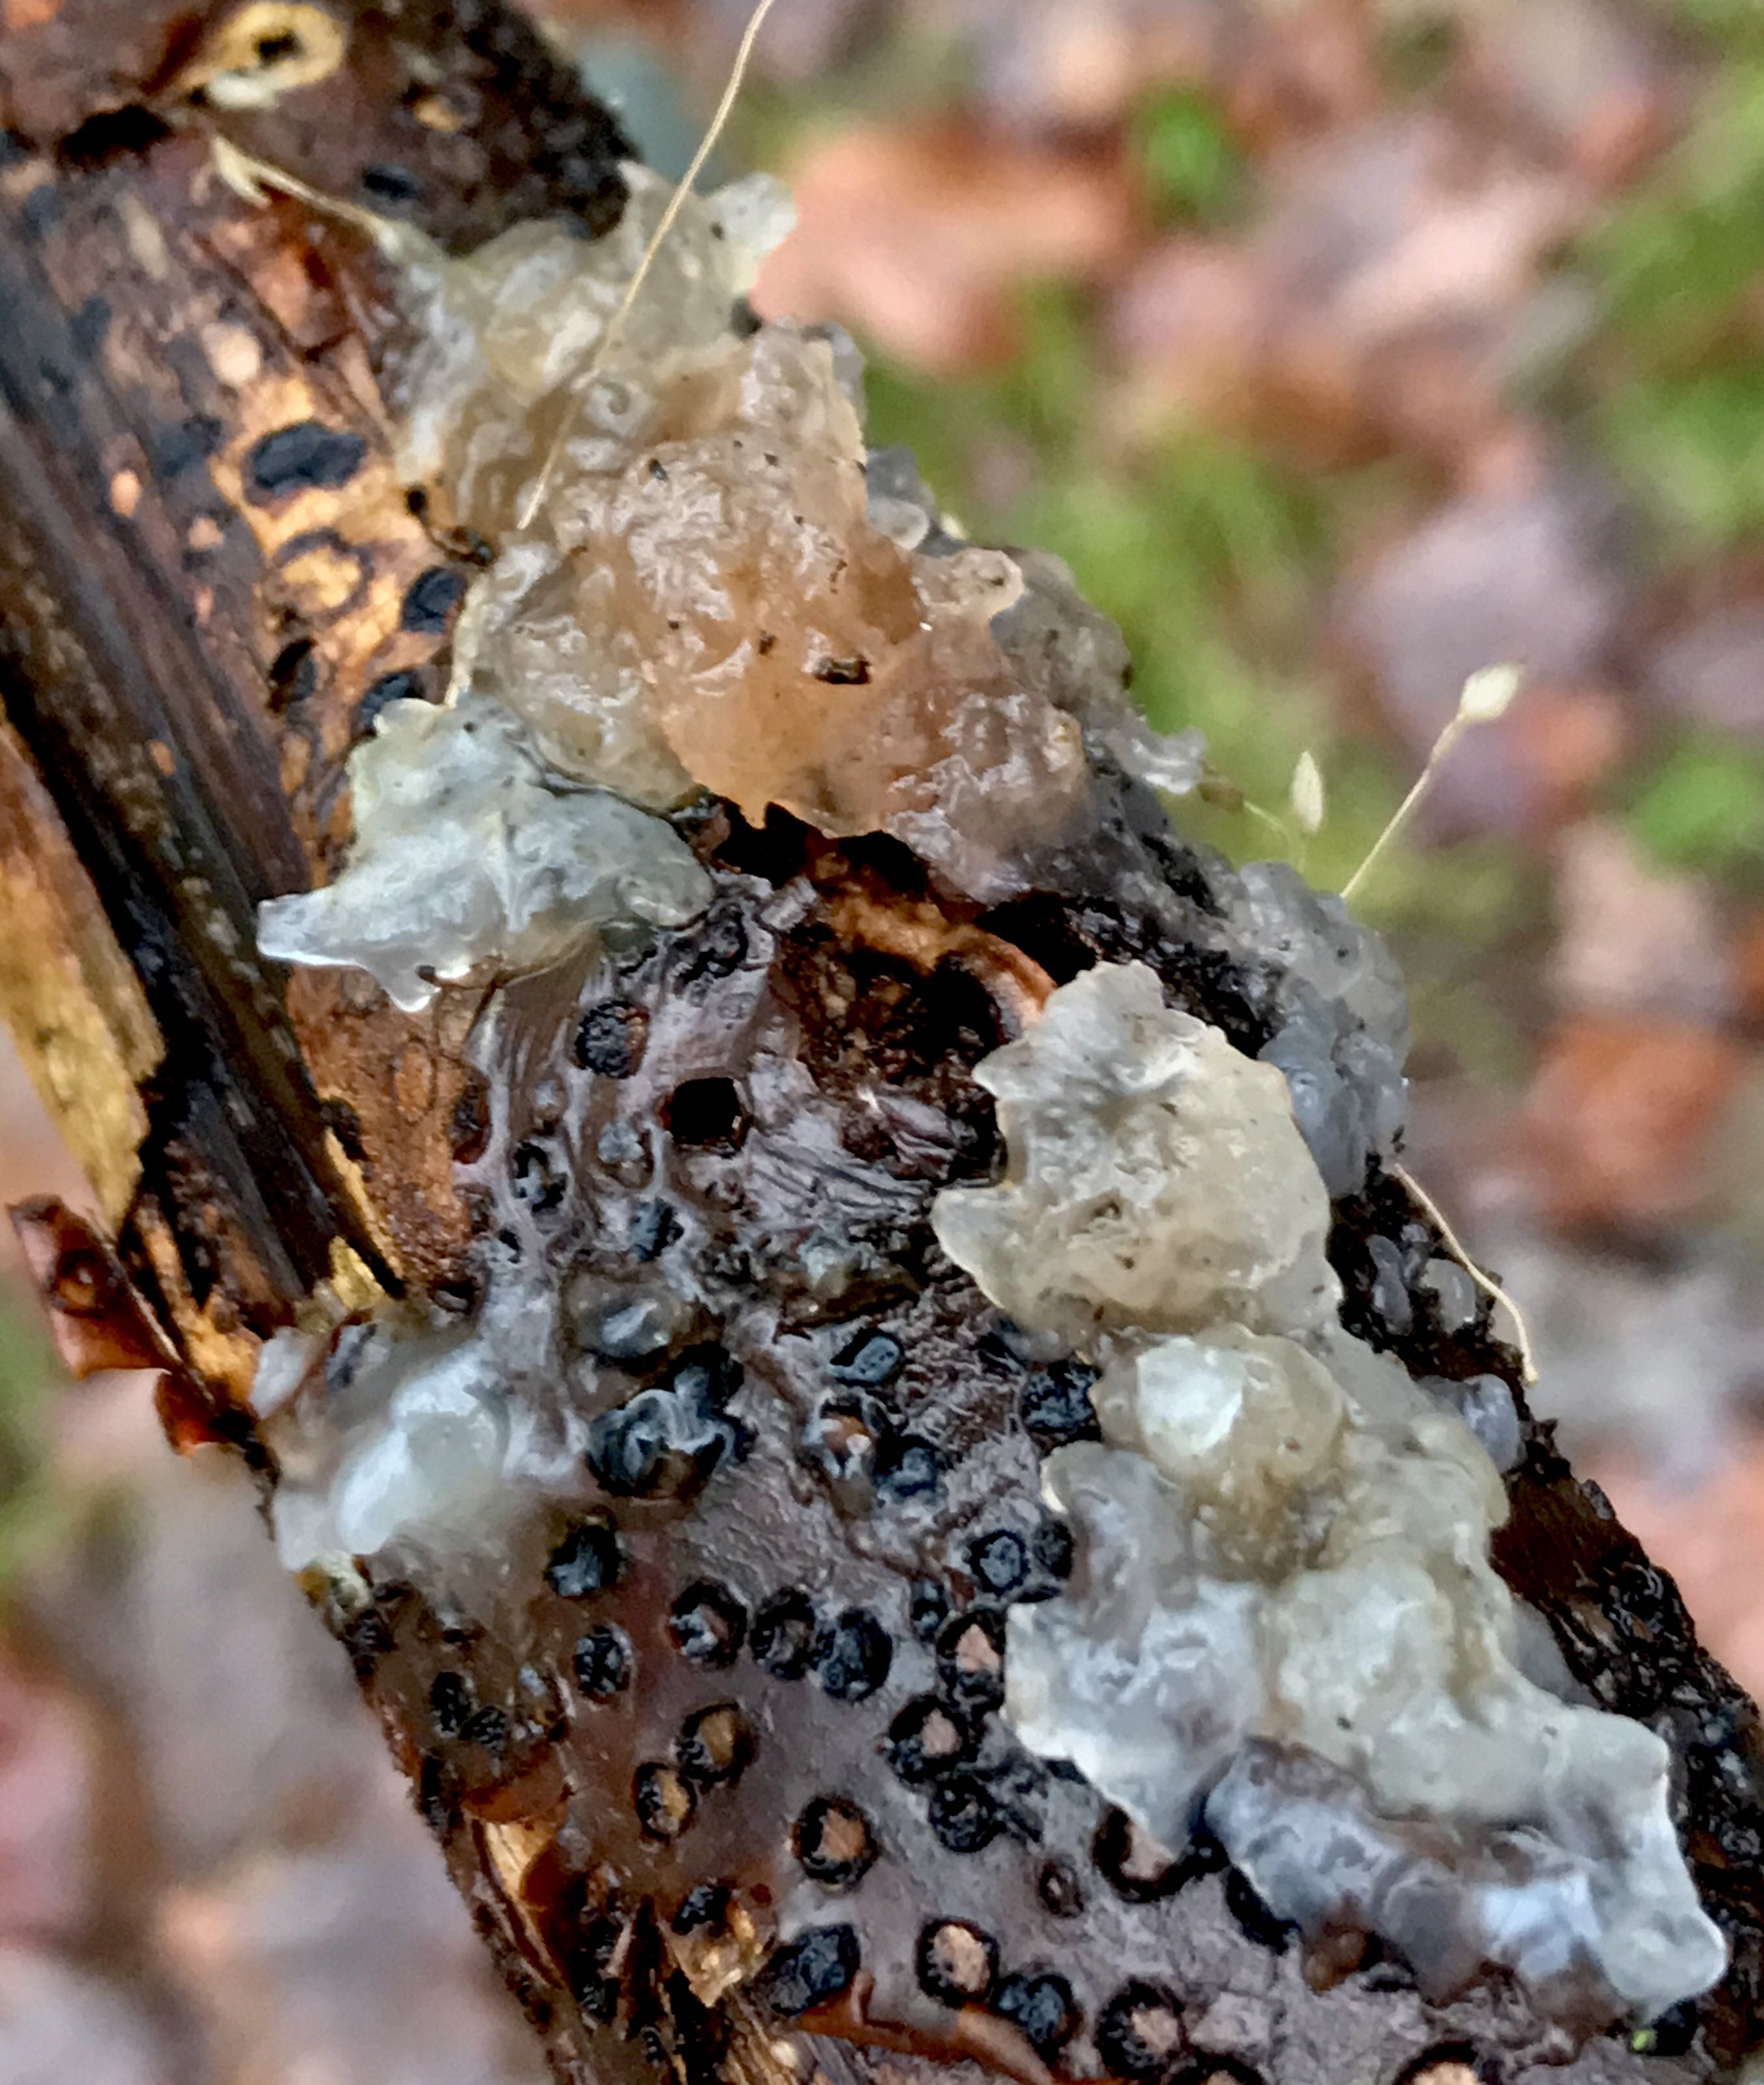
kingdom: Fungi
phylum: Basidiomycota
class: Agaricomycetes
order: Auriculariales
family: Hyaloriaceae
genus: Myxarium
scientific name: Myxarium nucleatum
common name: klar bævretop
